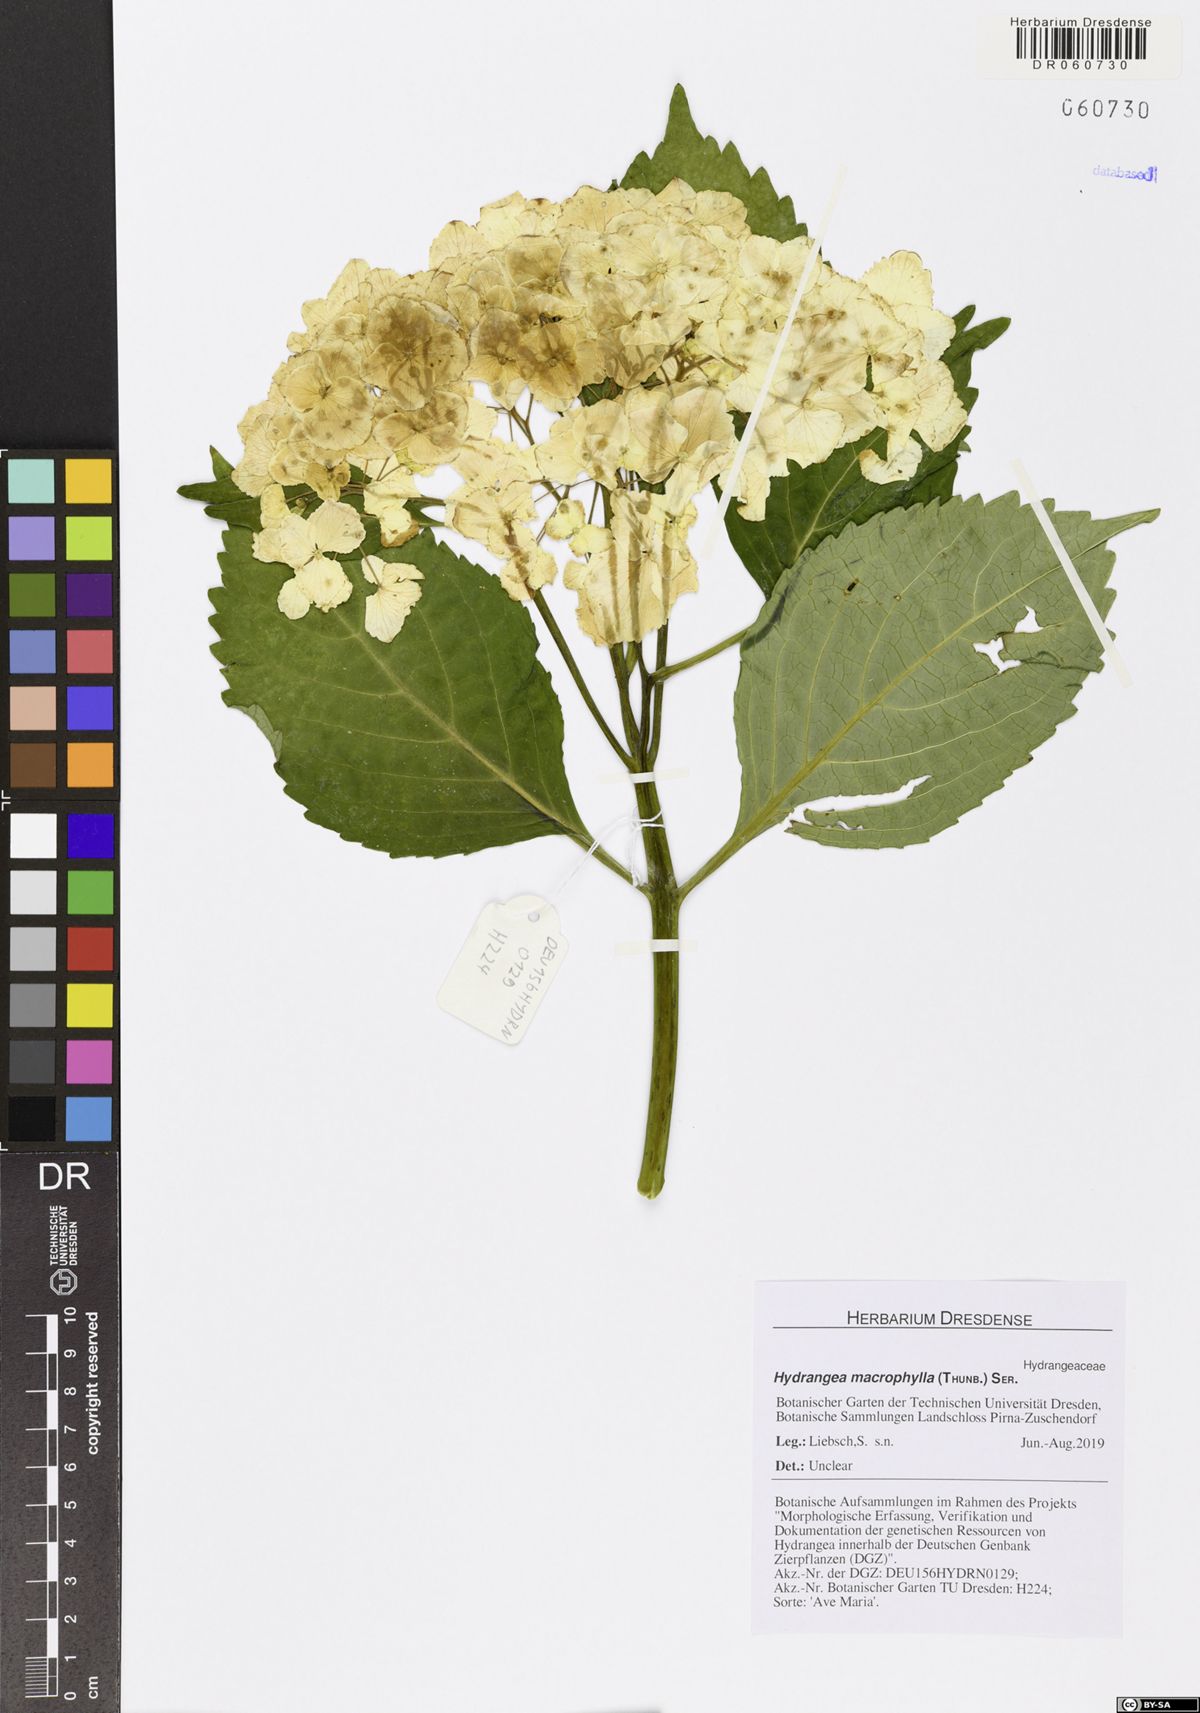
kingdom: Plantae
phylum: Tracheophyta
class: Magnoliopsida
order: Cornales
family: Hydrangeaceae
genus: Hydrangea
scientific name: Hydrangea macrophylla
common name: Hydrangea
